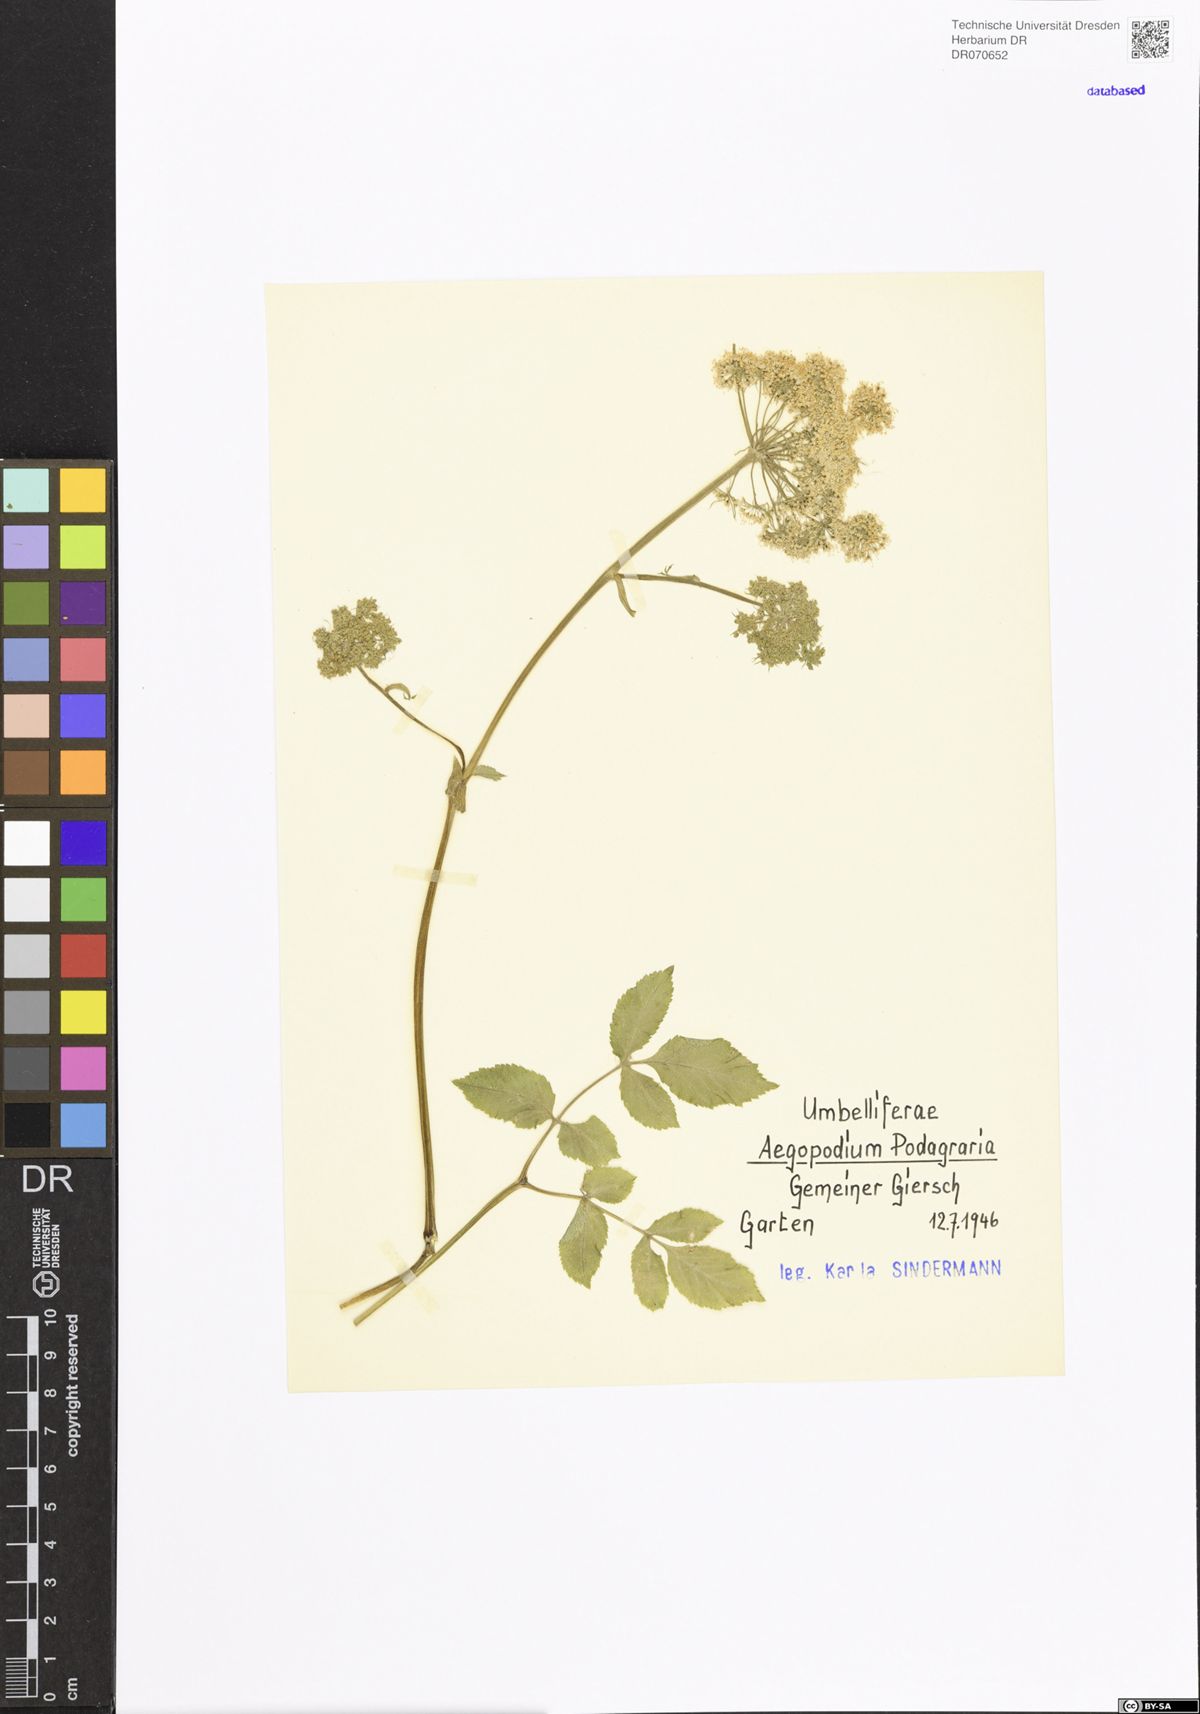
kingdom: Plantae
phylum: Tracheophyta
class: Magnoliopsida
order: Apiales
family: Apiaceae
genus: Aegopodium
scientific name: Aegopodium podagraria
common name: Ground-elder
